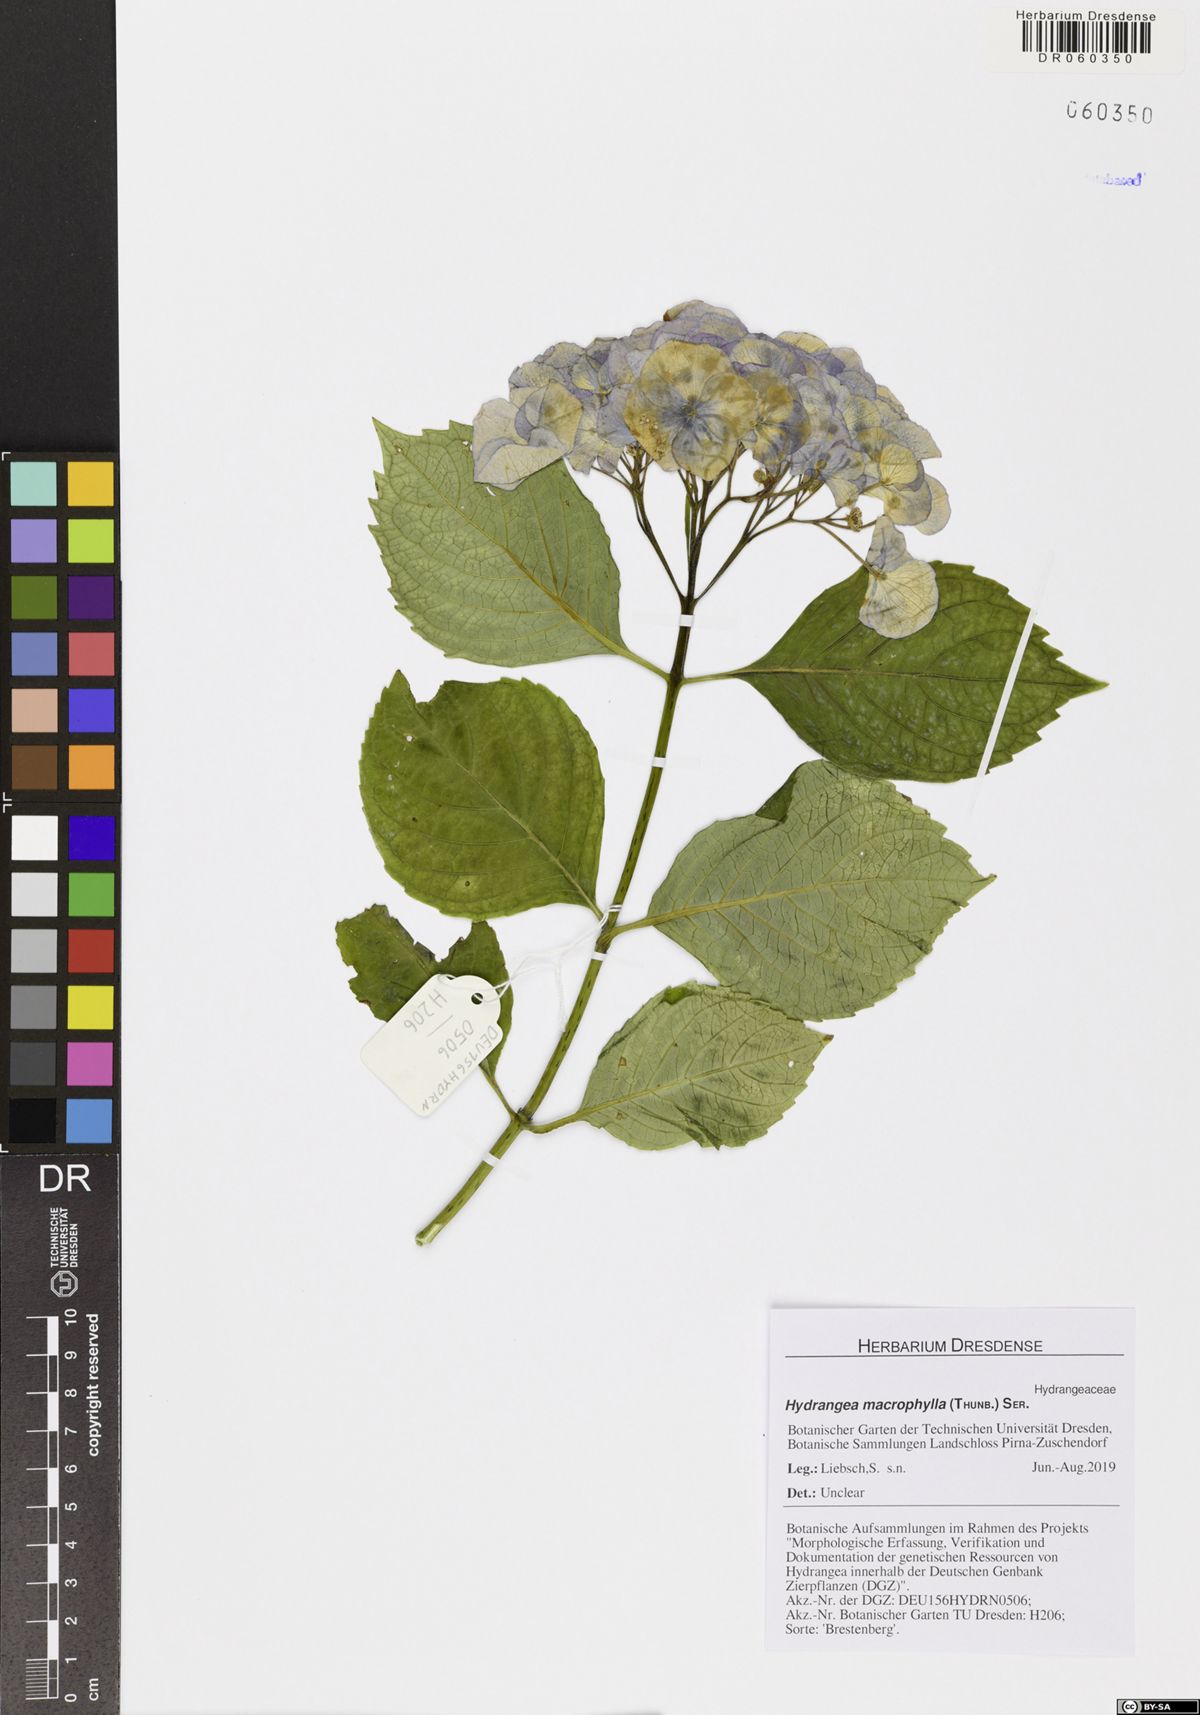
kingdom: Plantae
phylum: Tracheophyta
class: Magnoliopsida
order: Cornales
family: Hydrangeaceae
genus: Hydrangea
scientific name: Hydrangea macrophylla
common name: Hydrangea
